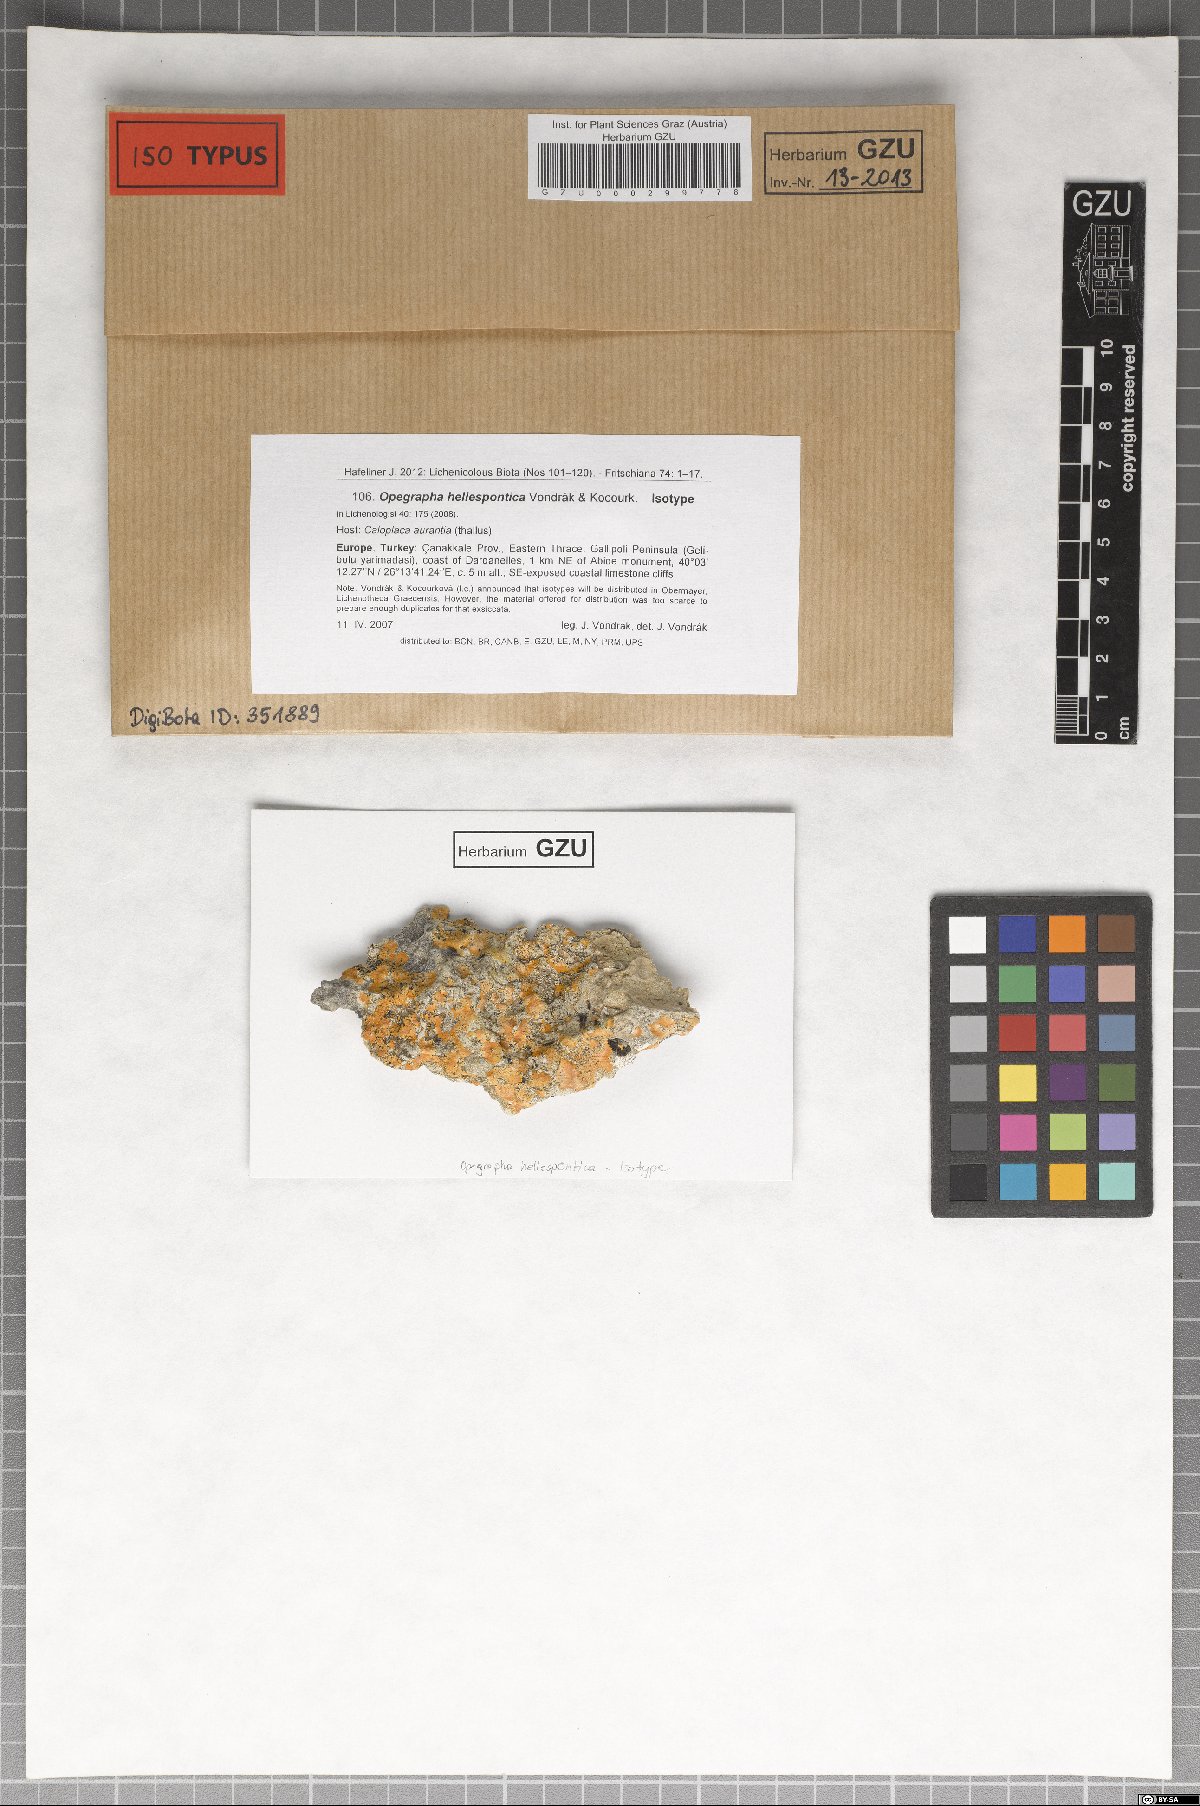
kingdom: Fungi
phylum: Ascomycota
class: Arthoniomycetes
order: Arthoniales
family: Opegraphaceae
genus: Opegrapha
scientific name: Opegrapha hellespontica
